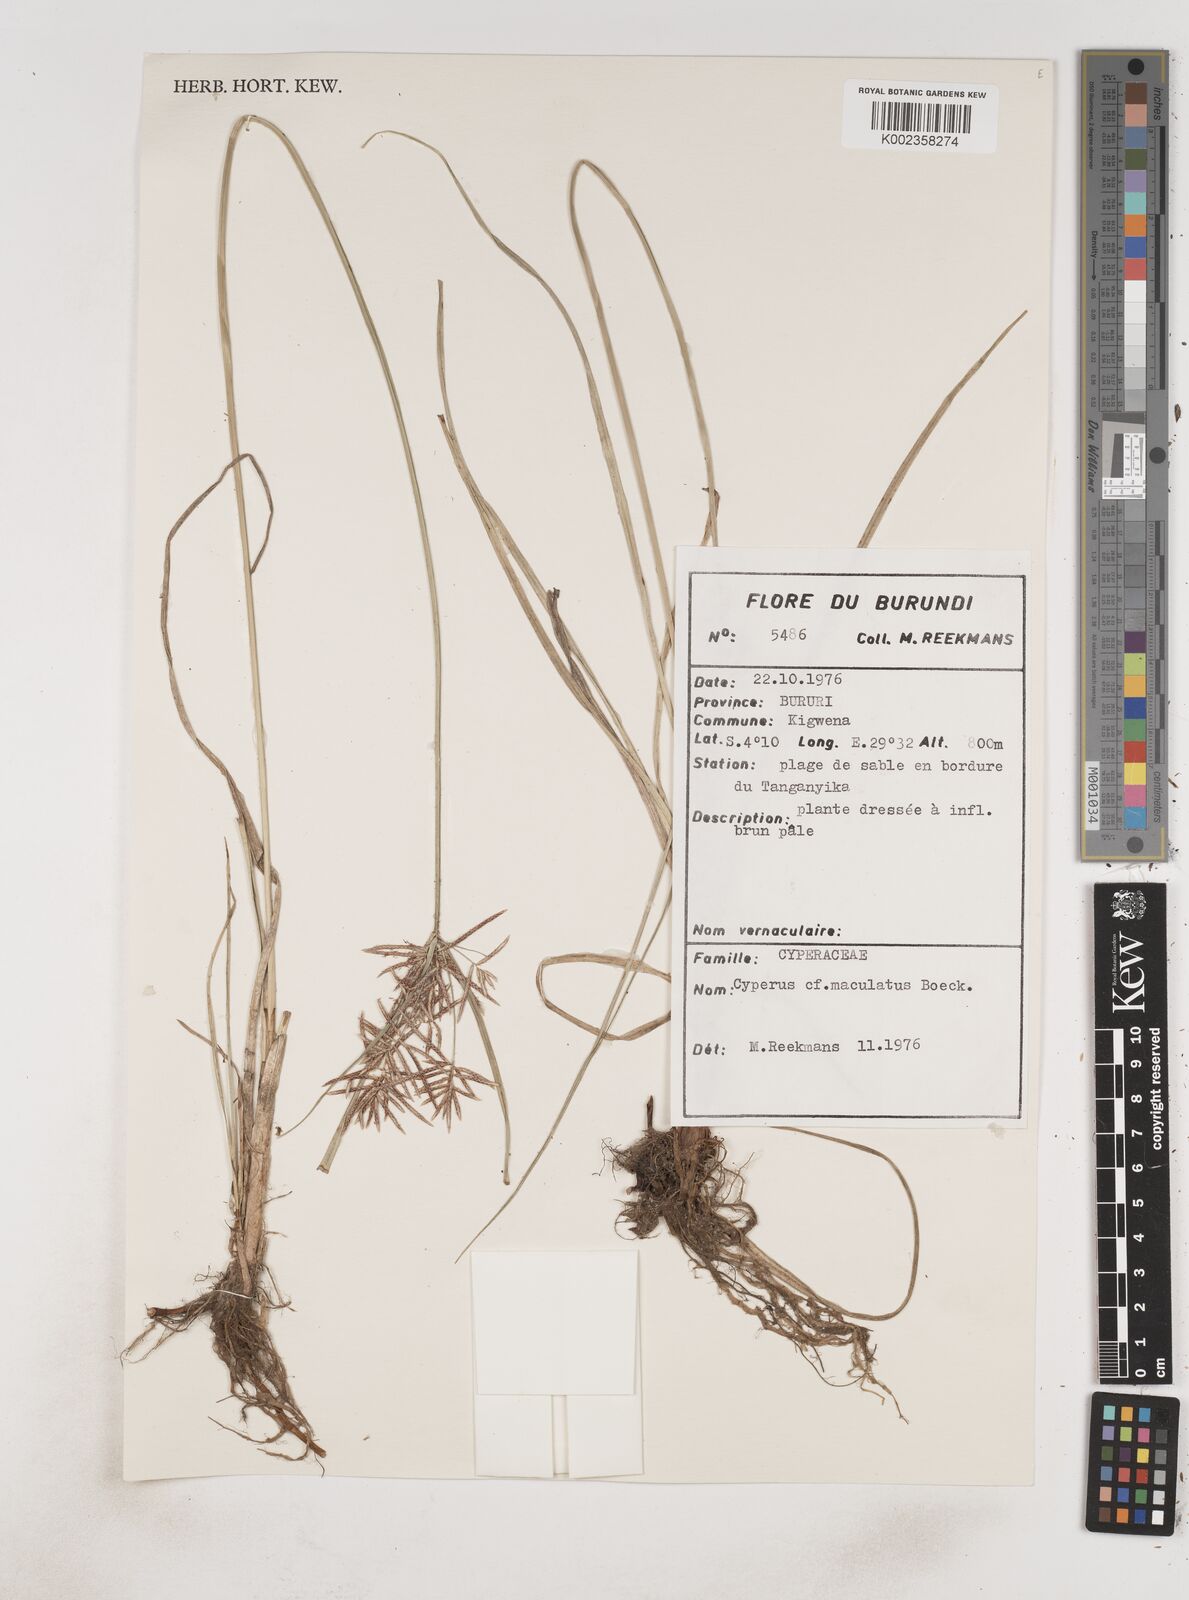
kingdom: Plantae
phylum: Tracheophyta
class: Liliopsida
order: Poales
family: Cyperaceae
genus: Cyperus
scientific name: Cyperus maculatus
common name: Maculated sedge
